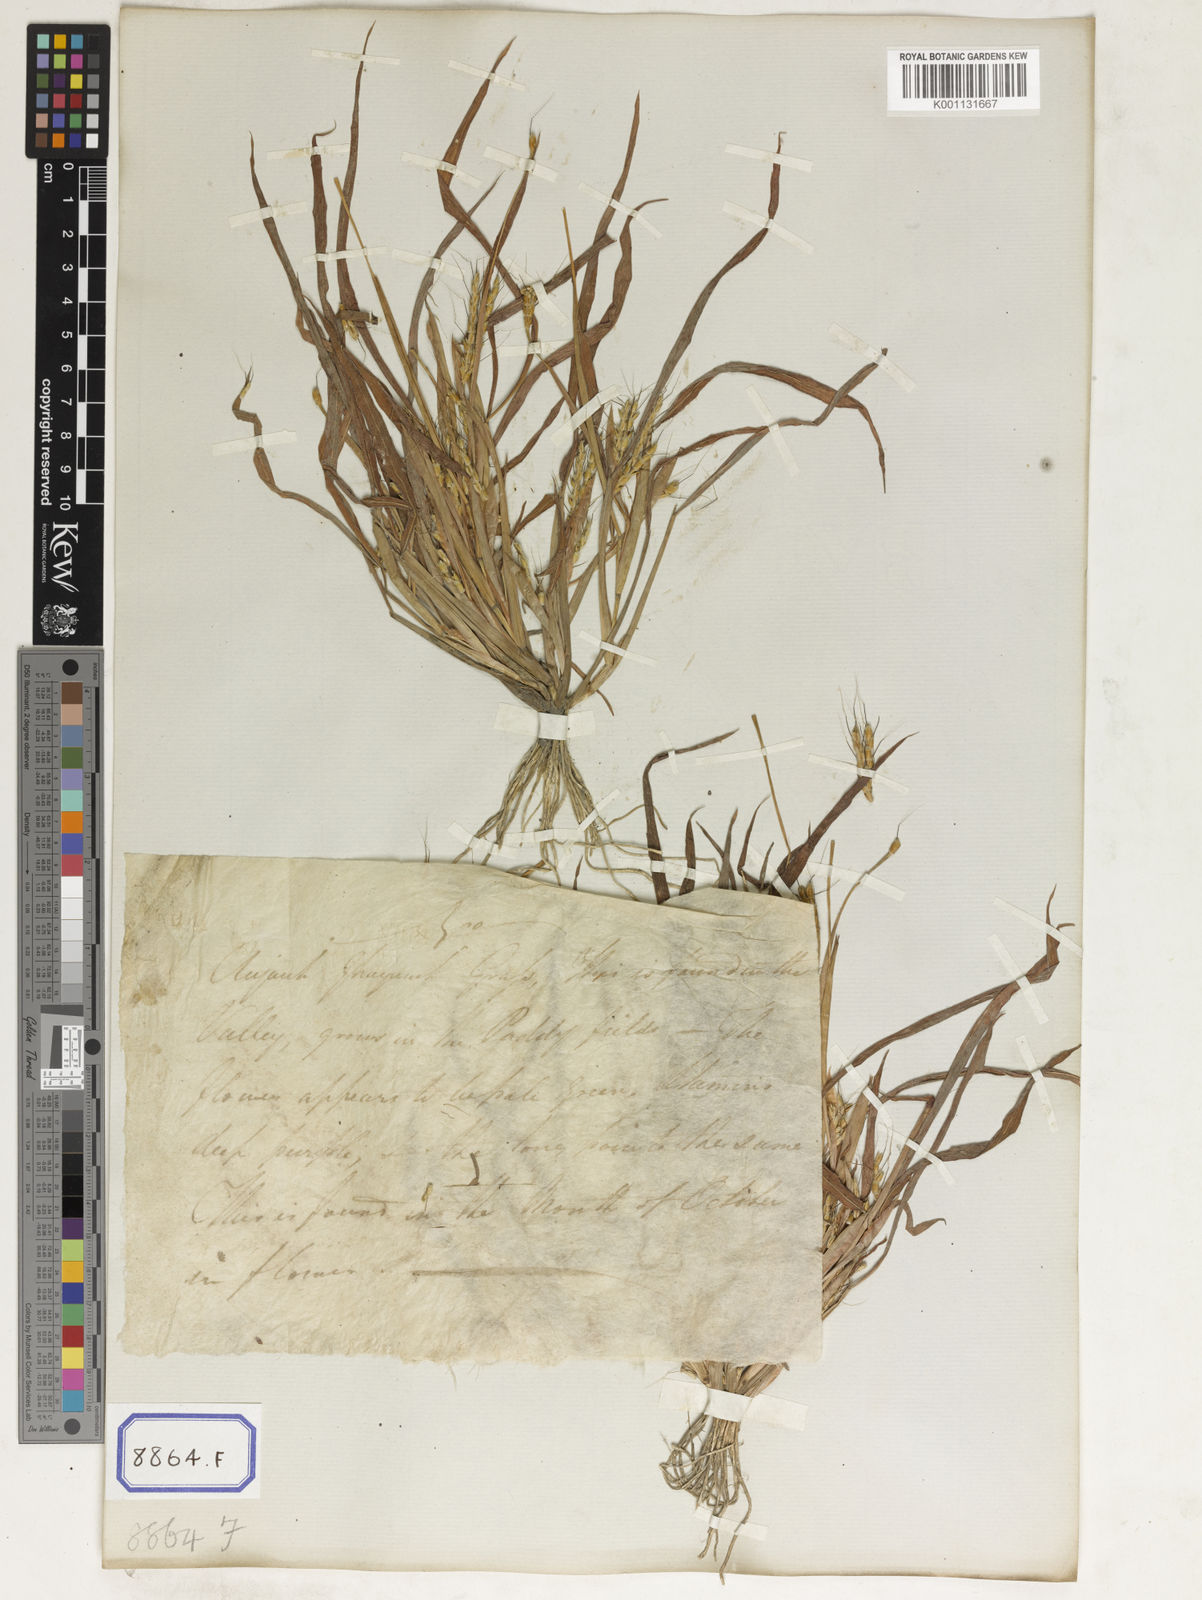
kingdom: Plantae
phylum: Tracheophyta
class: Liliopsida
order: Poales
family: Poaceae
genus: Ischaemum
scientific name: Ischaemum rugosum
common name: Saramatta grass
